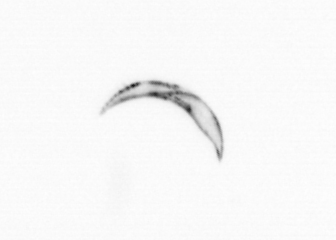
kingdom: Chromista
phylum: Ochrophyta
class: Bacillariophyceae
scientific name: Bacillariophyceae
